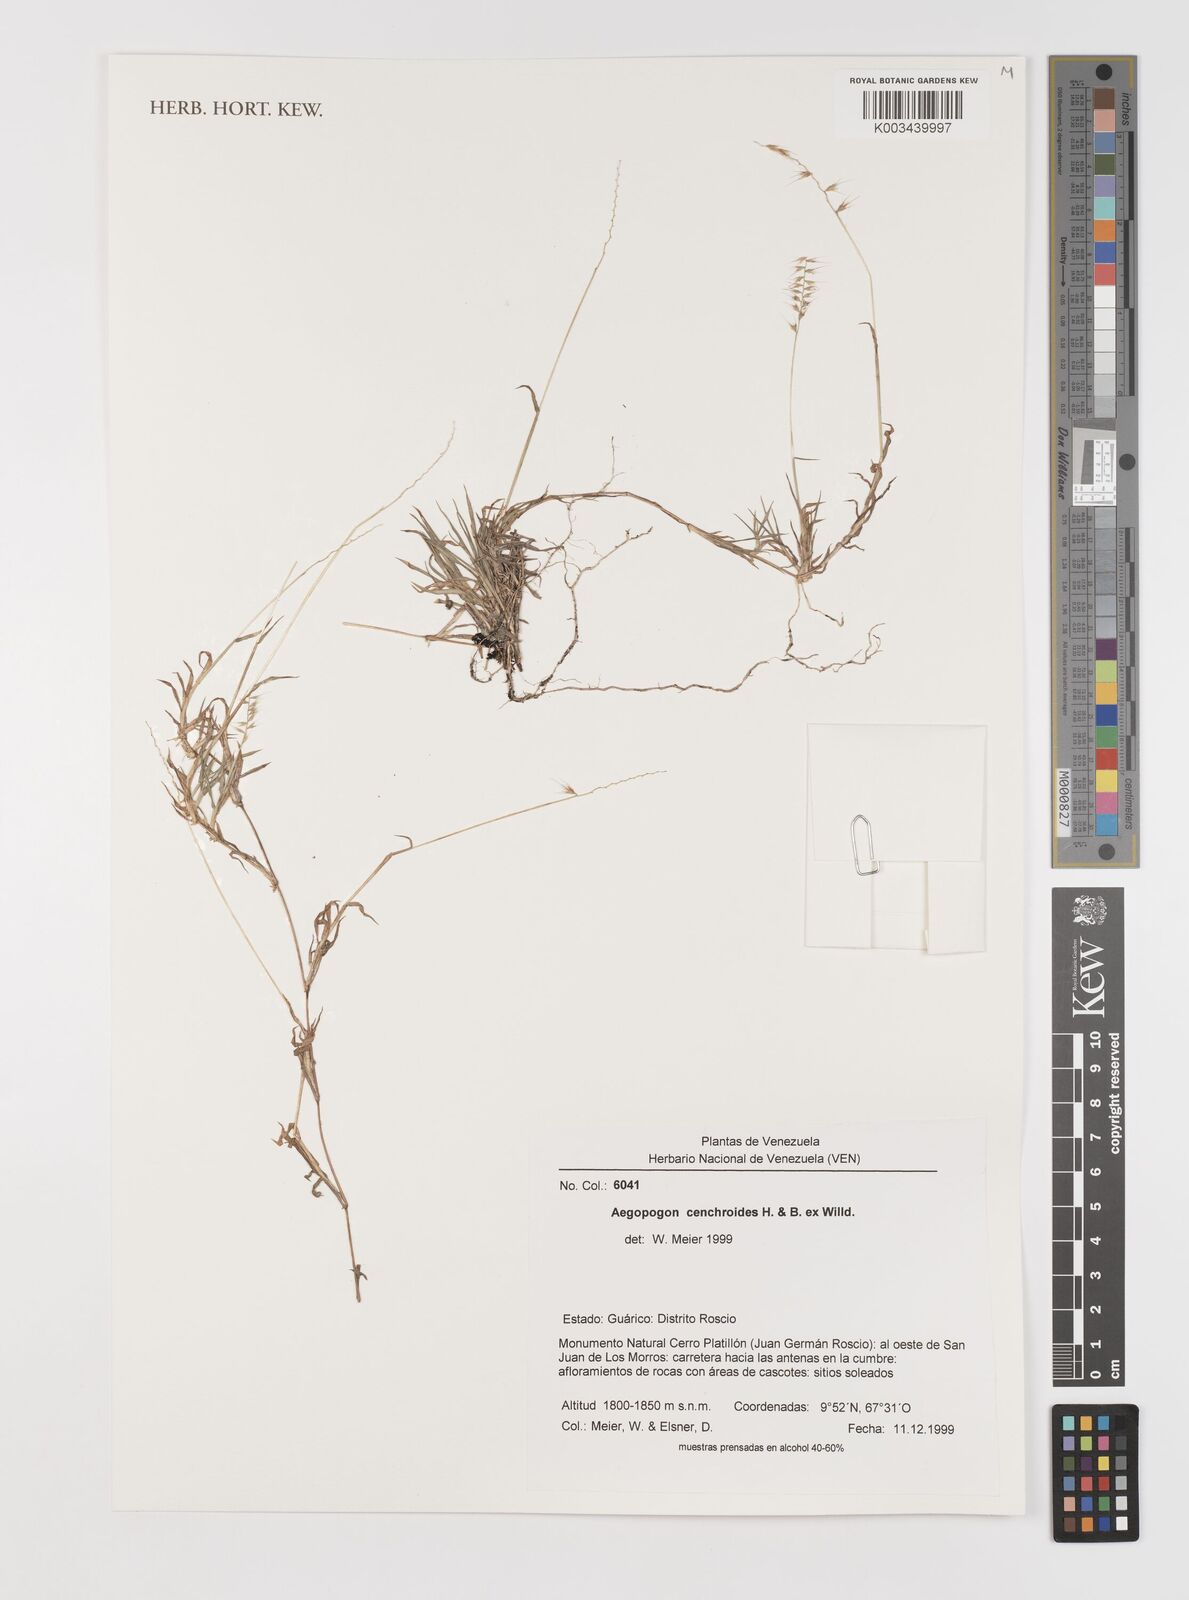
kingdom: Plantae
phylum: Tracheophyta
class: Liliopsida
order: Poales
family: Poaceae
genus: Muhlenbergia
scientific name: Muhlenbergia cenchroides
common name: Relaxgrass
